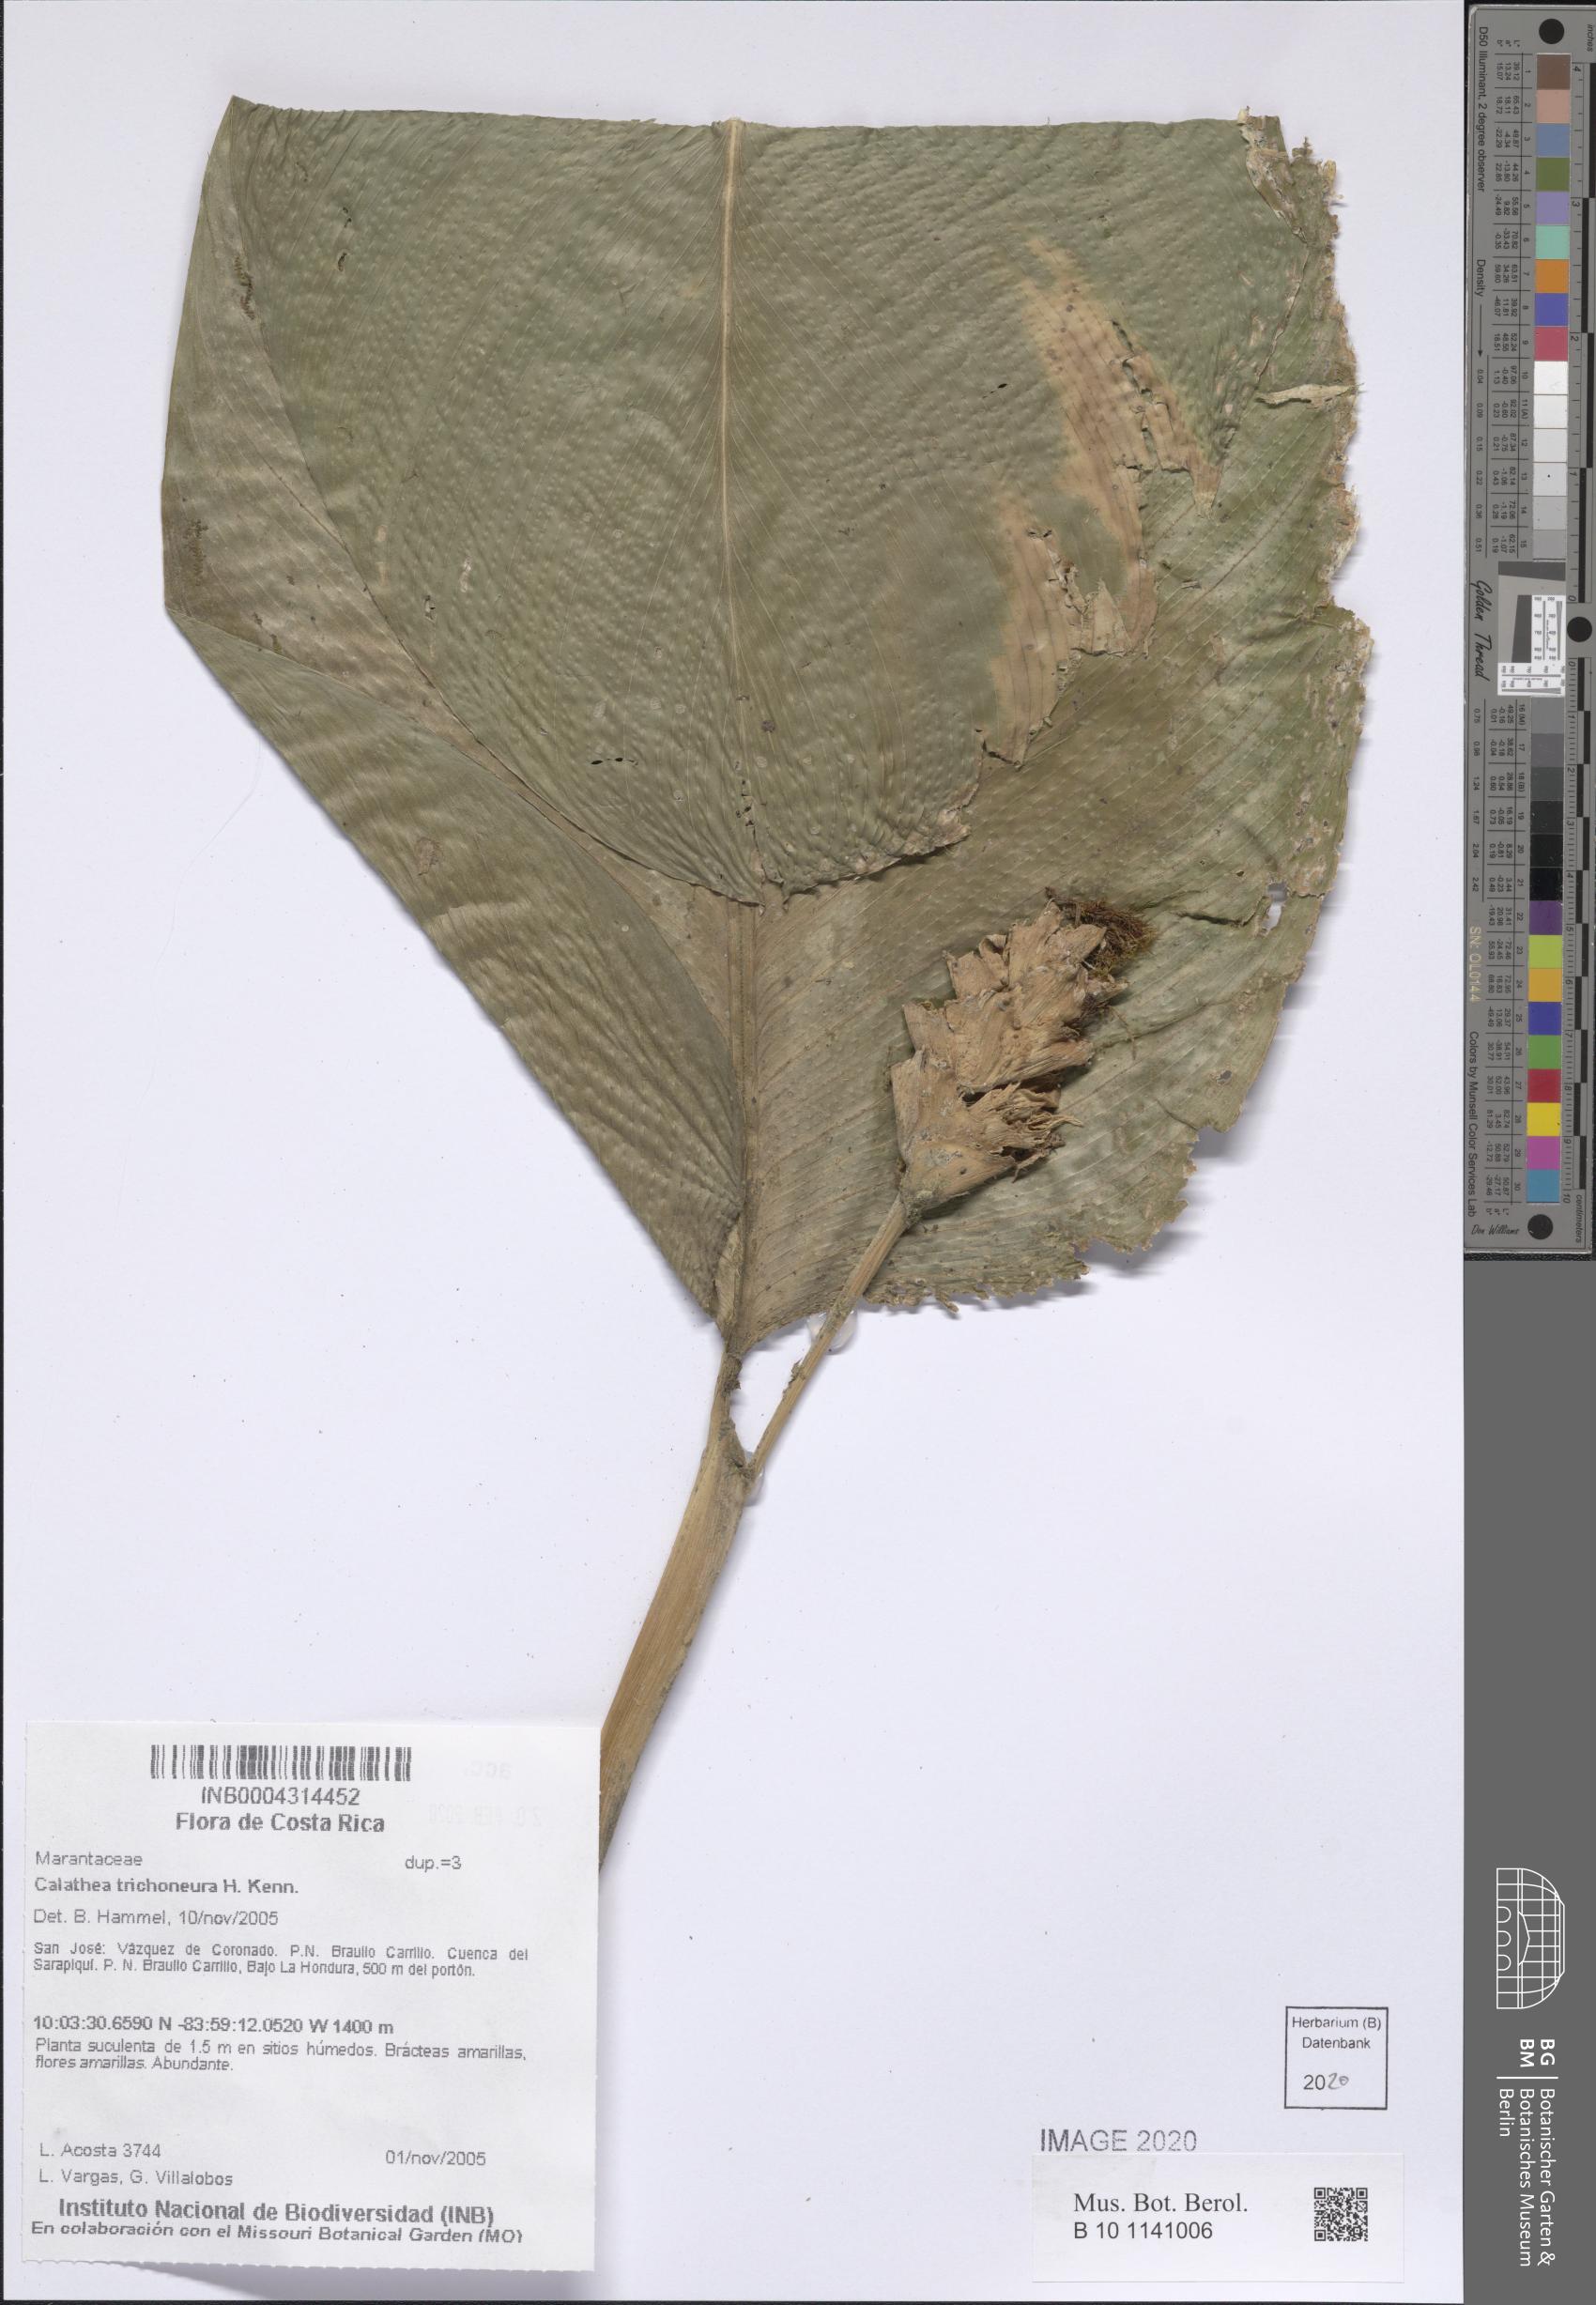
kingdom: Plantae
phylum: Tracheophyta
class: Liliopsida
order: Zingiberales
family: Marantaceae
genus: Goeppertia
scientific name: Goeppertia trichoneura
